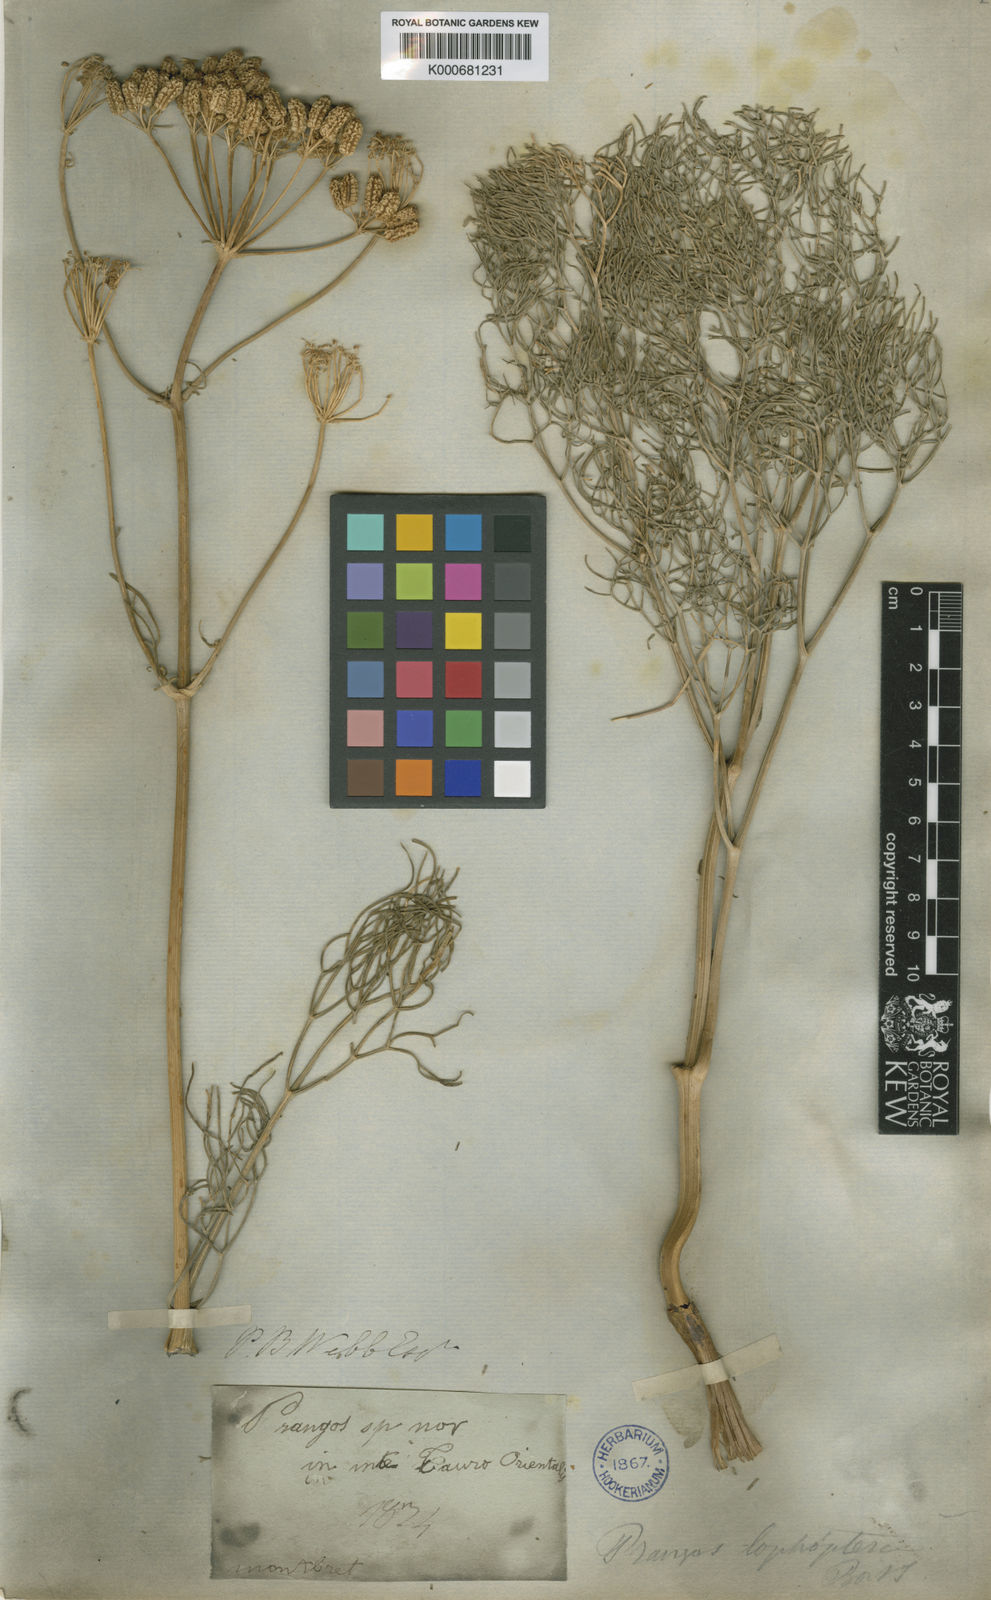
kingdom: Plantae
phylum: Tracheophyta
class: Magnoliopsida
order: Apiales
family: Apiaceae
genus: Prangos
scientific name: Prangos pabularia
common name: Yugan
